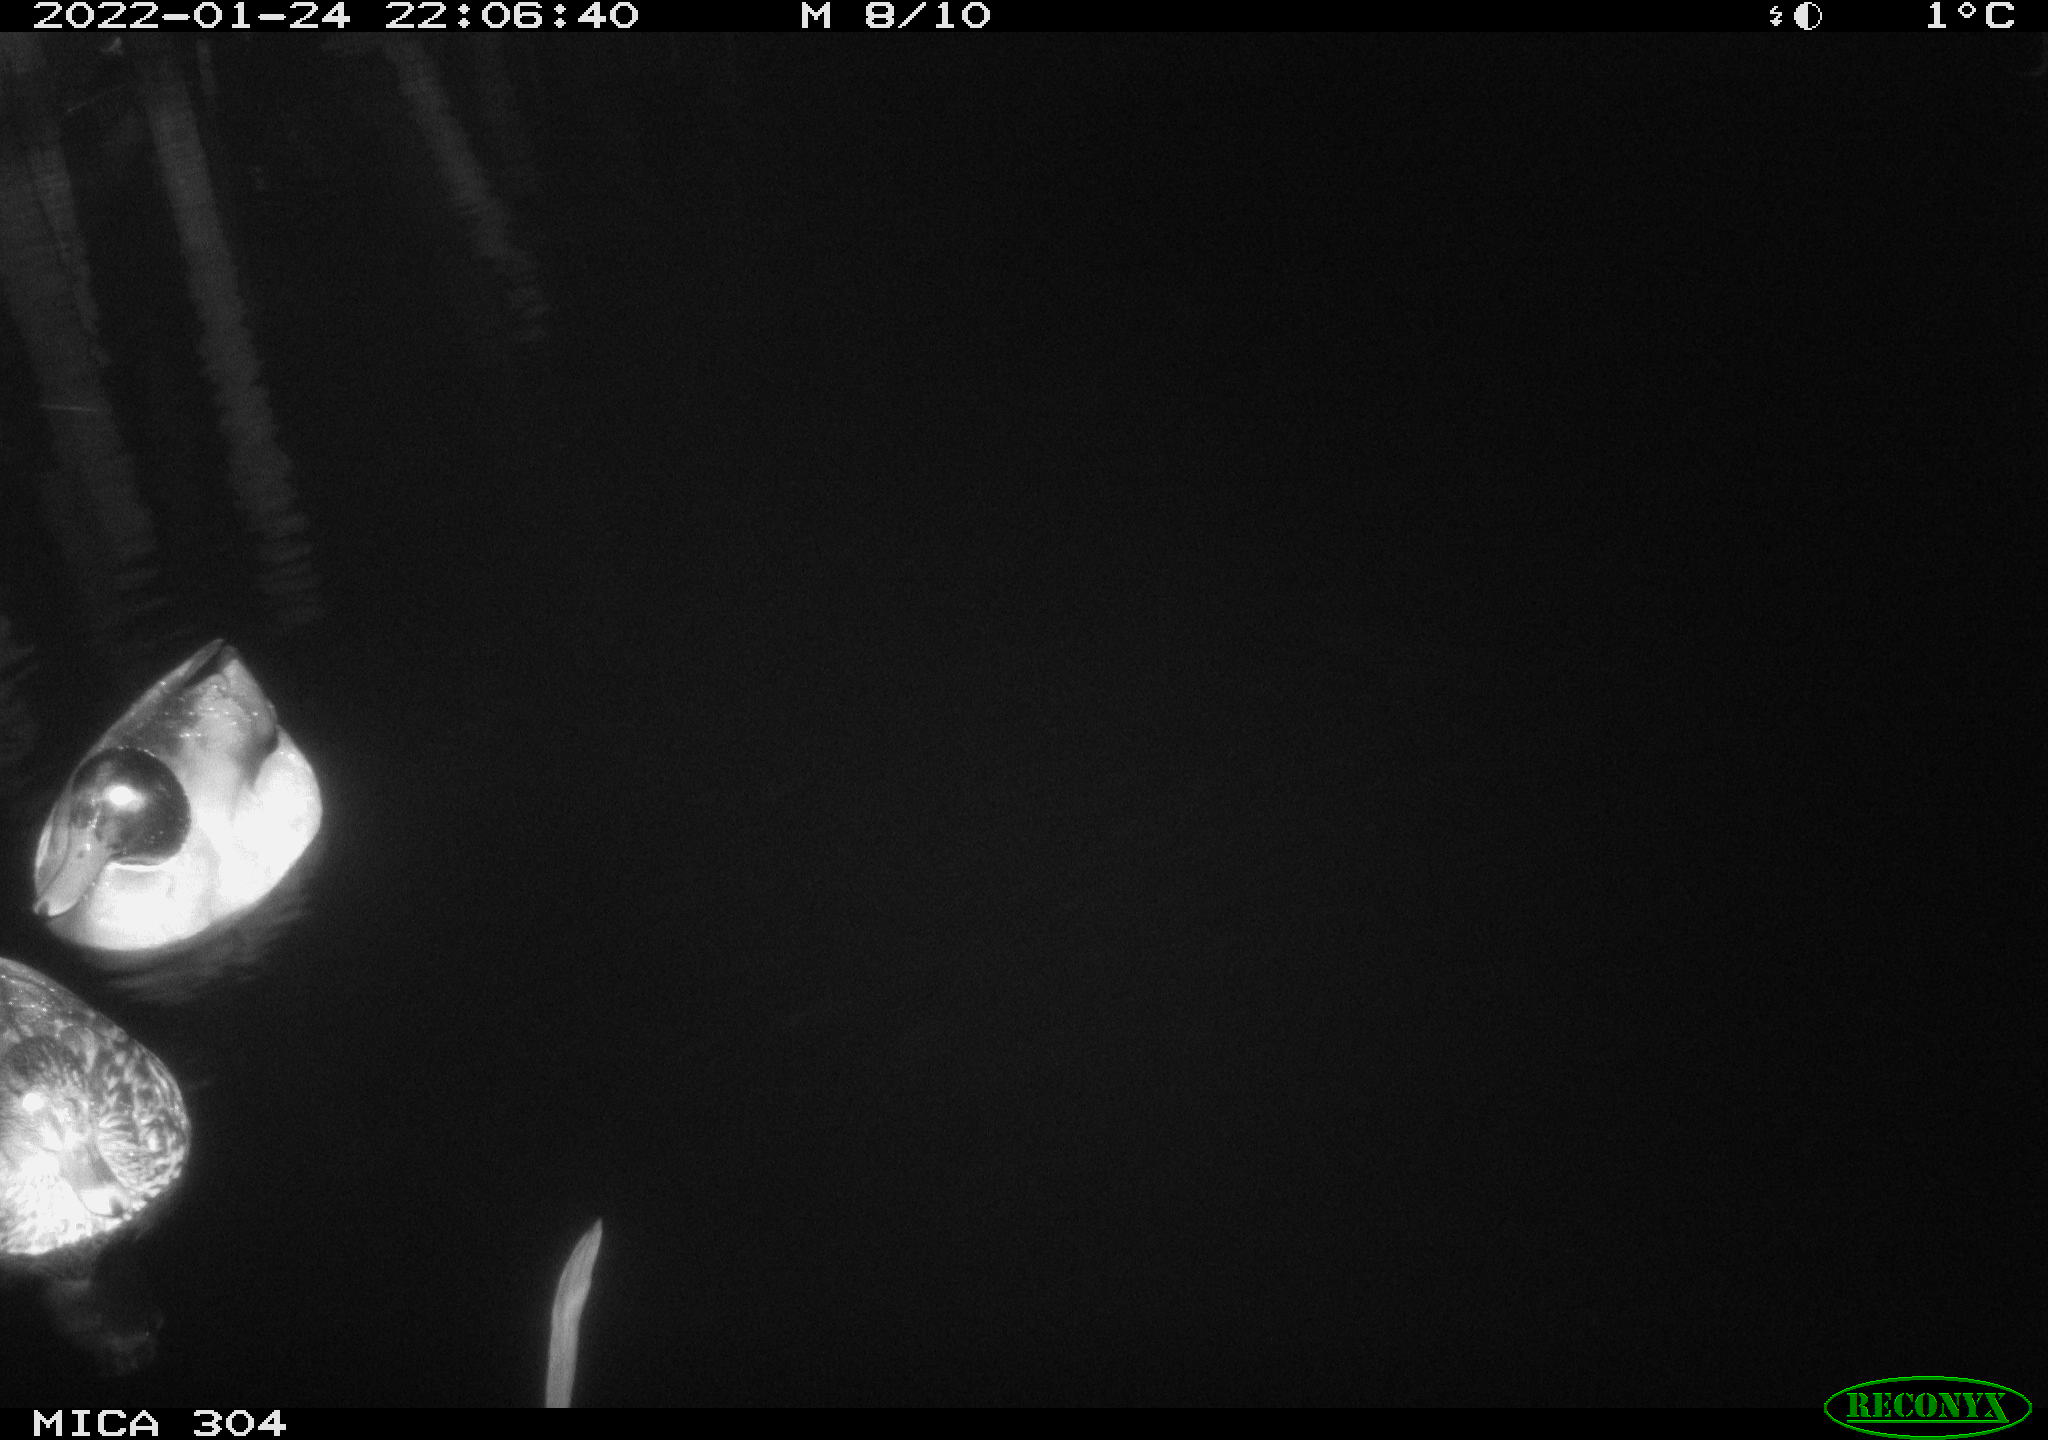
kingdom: Animalia
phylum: Chordata
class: Aves
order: Anseriformes
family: Anatidae
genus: Anas
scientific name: Anas
